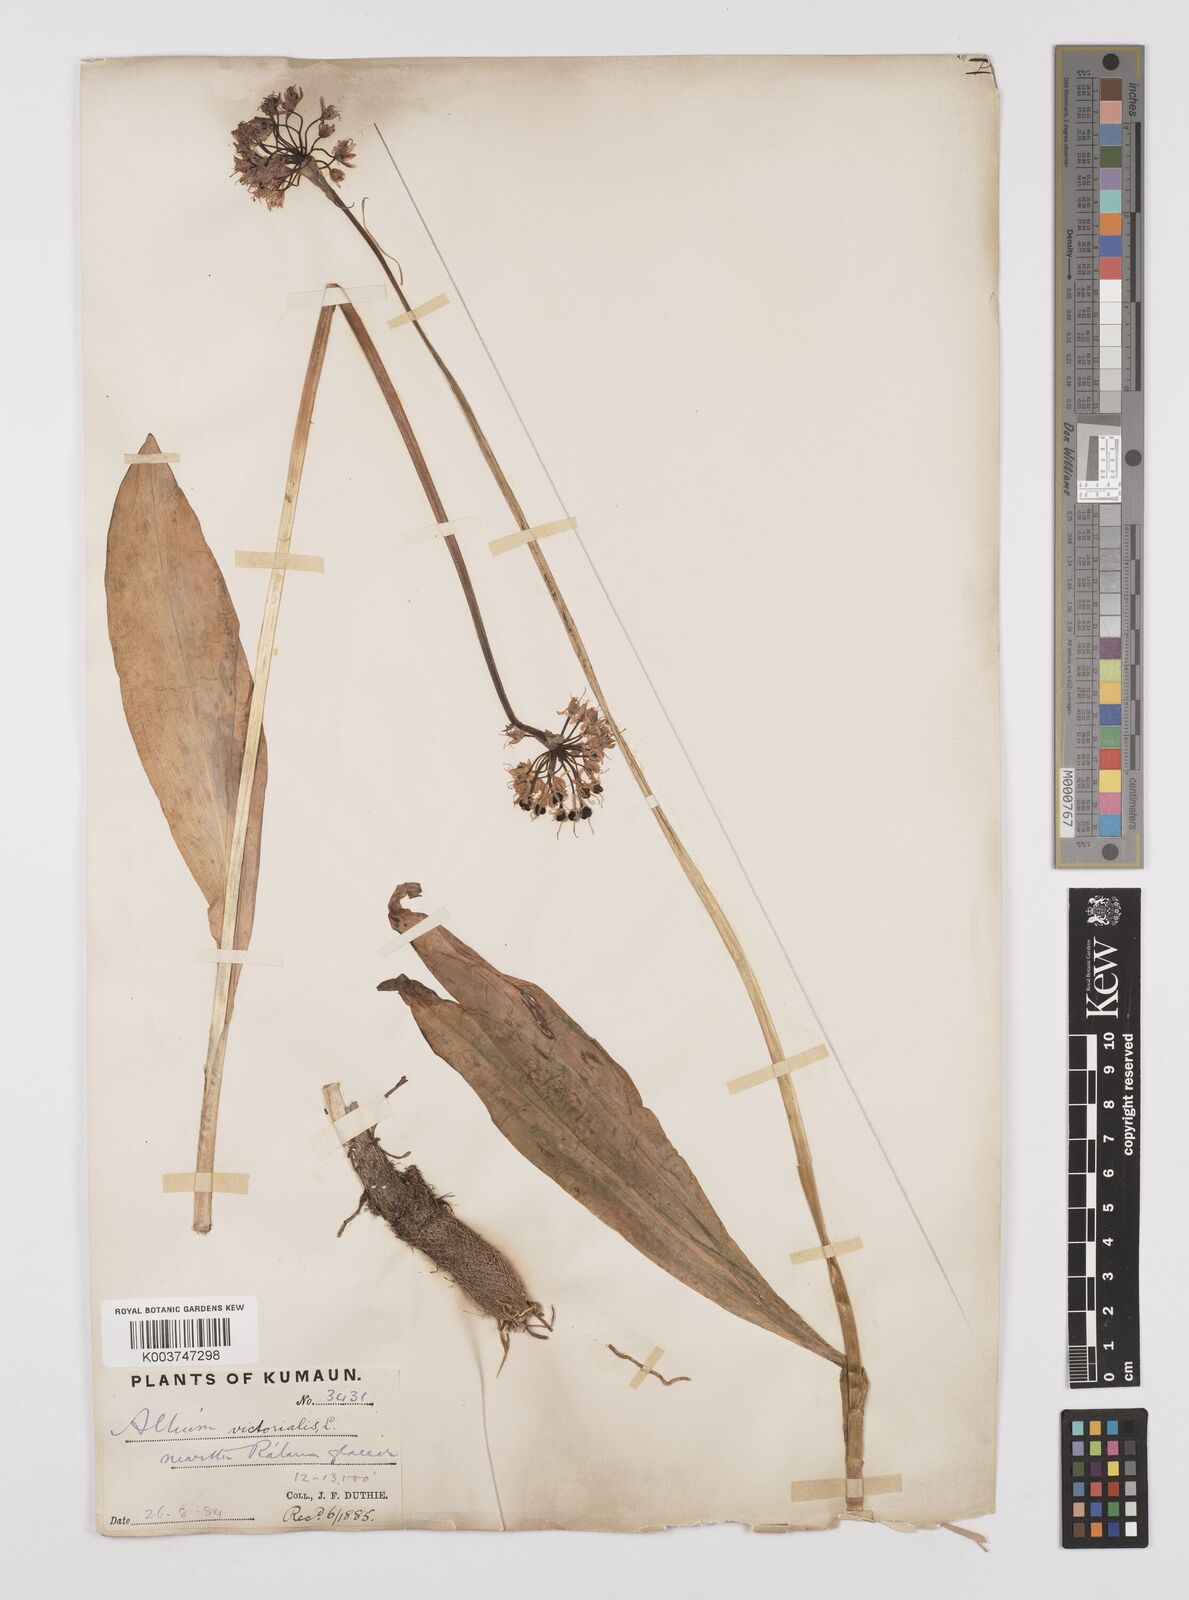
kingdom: Plantae
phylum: Tracheophyta
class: Liliopsida
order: Asparagales
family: Amaryllidaceae
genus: Allium
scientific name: Allium victorialis
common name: Alpine leek
